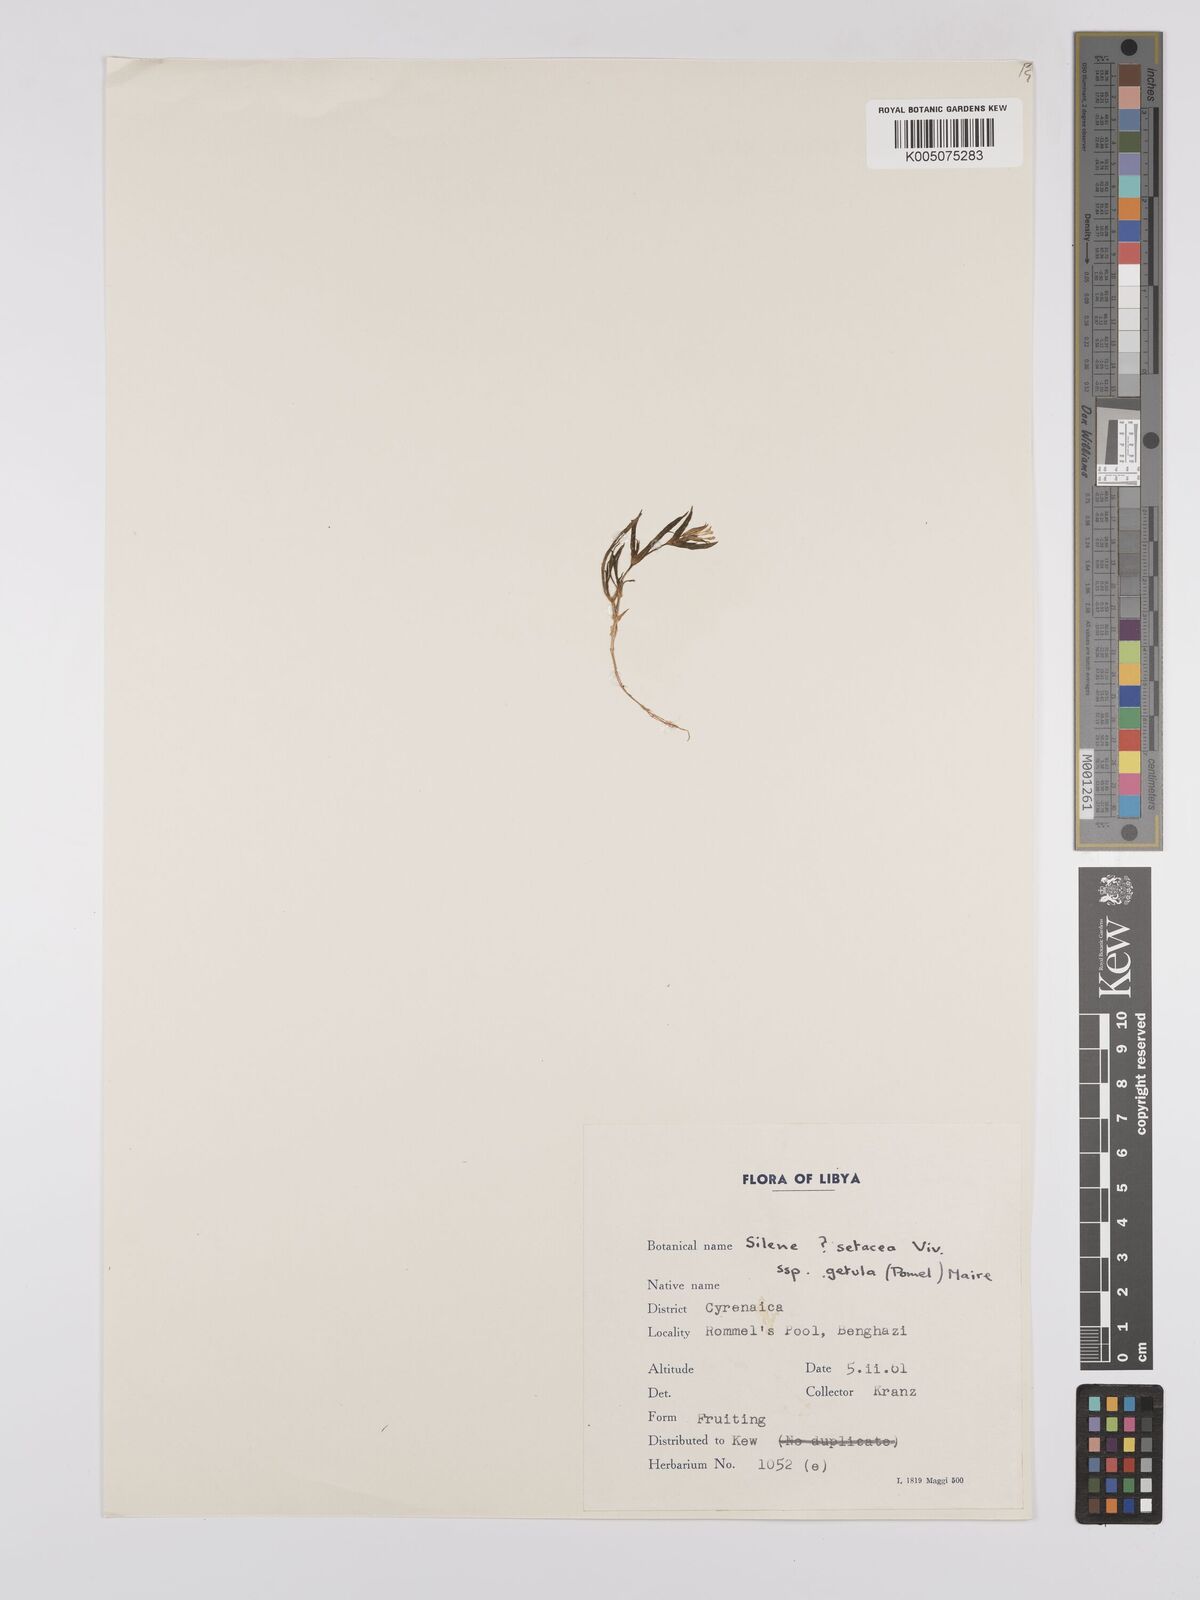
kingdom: Plantae
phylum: Tracheophyta
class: Magnoliopsida
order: Caryophyllales
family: Caryophyllaceae
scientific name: Caryophyllaceae
